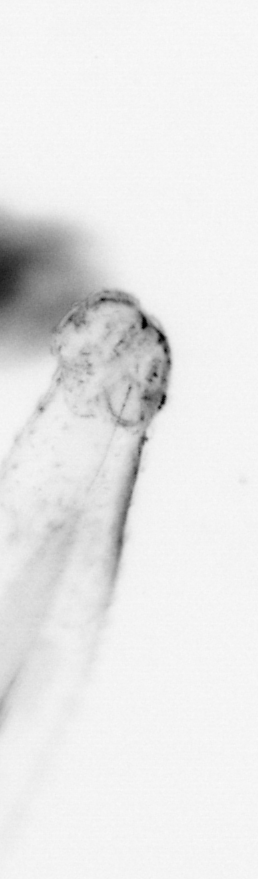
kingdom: Animalia
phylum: Chaetognatha
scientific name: Chaetognatha
